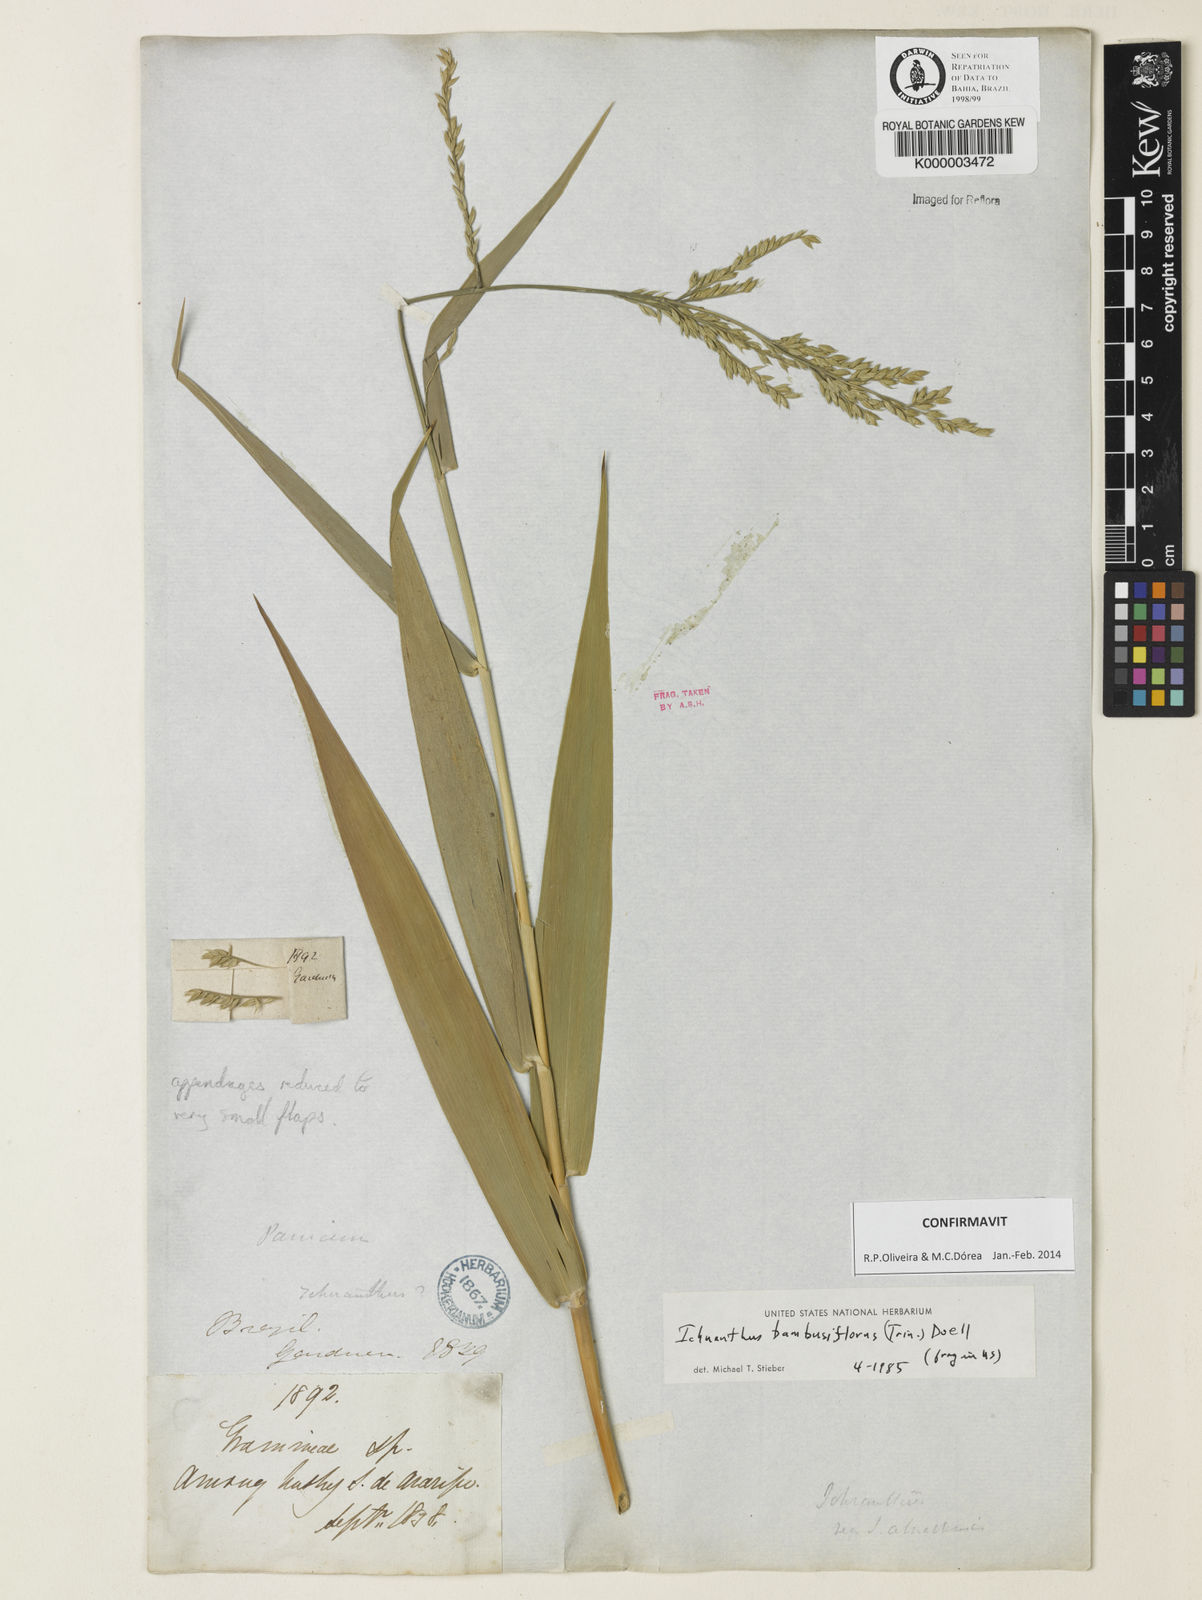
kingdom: Plantae
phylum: Tracheophyta
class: Liliopsida
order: Poales
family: Poaceae
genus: Ichnanthus
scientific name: Ichnanthus
